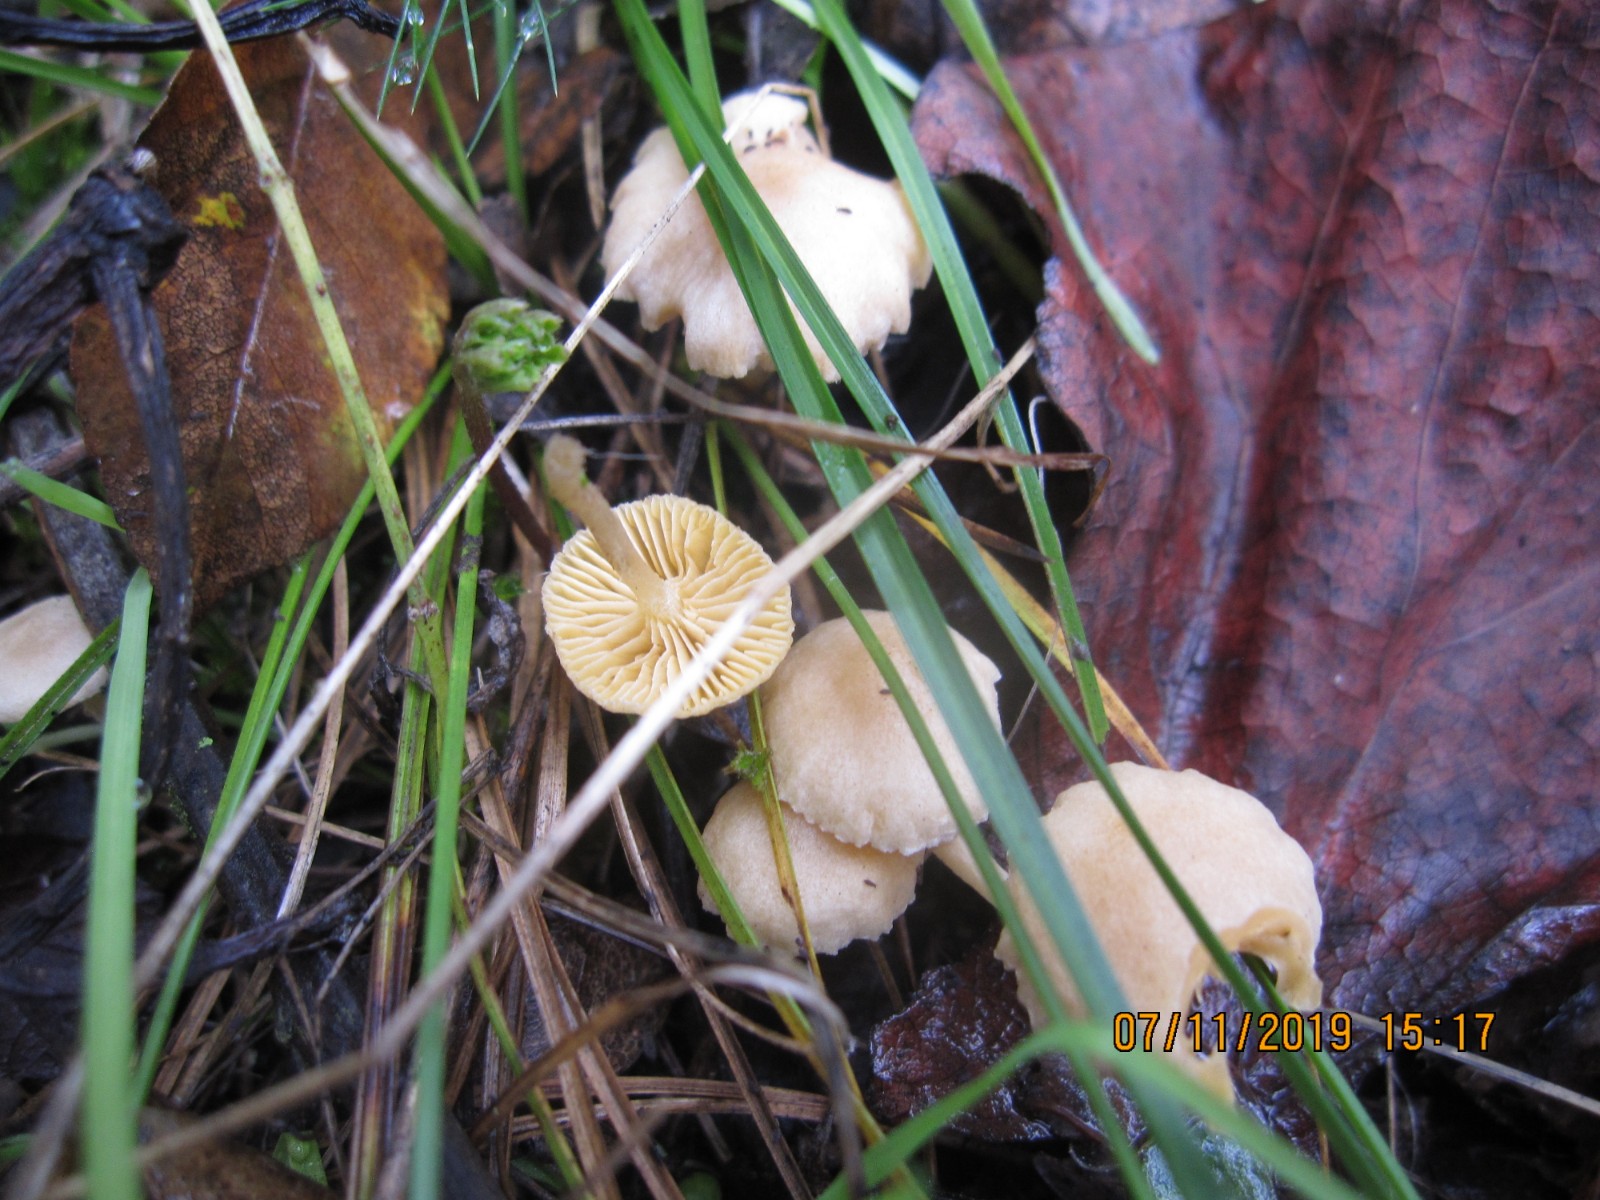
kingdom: Fungi
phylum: Basidiomycota
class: Agaricomycetes
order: Agaricales
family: Tubariaceae
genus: Tubaria
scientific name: Tubaria dispersa
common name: tjørne-fnughat
